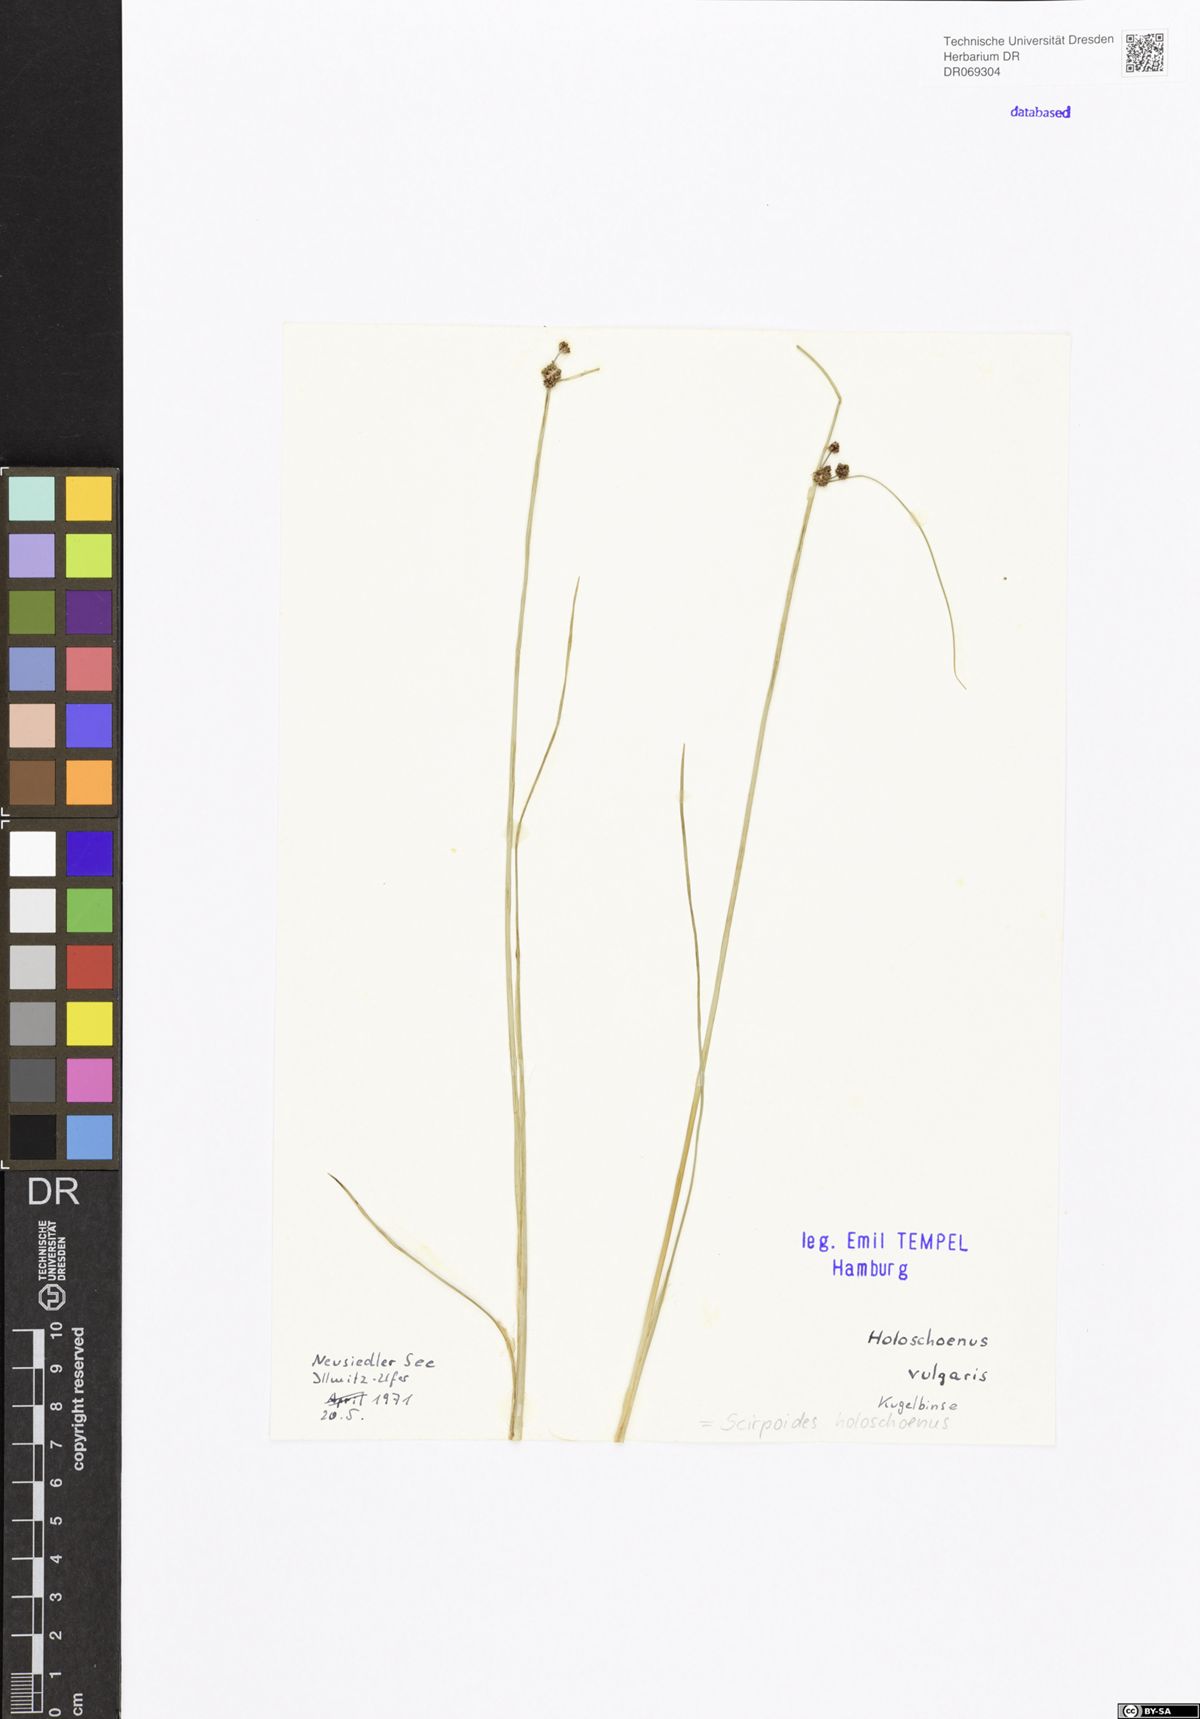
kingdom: Plantae
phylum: Tracheophyta
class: Liliopsida
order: Poales
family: Cyperaceae
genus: Scirpoides
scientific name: Scirpoides holoschoenus
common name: Round-headed club-rush
